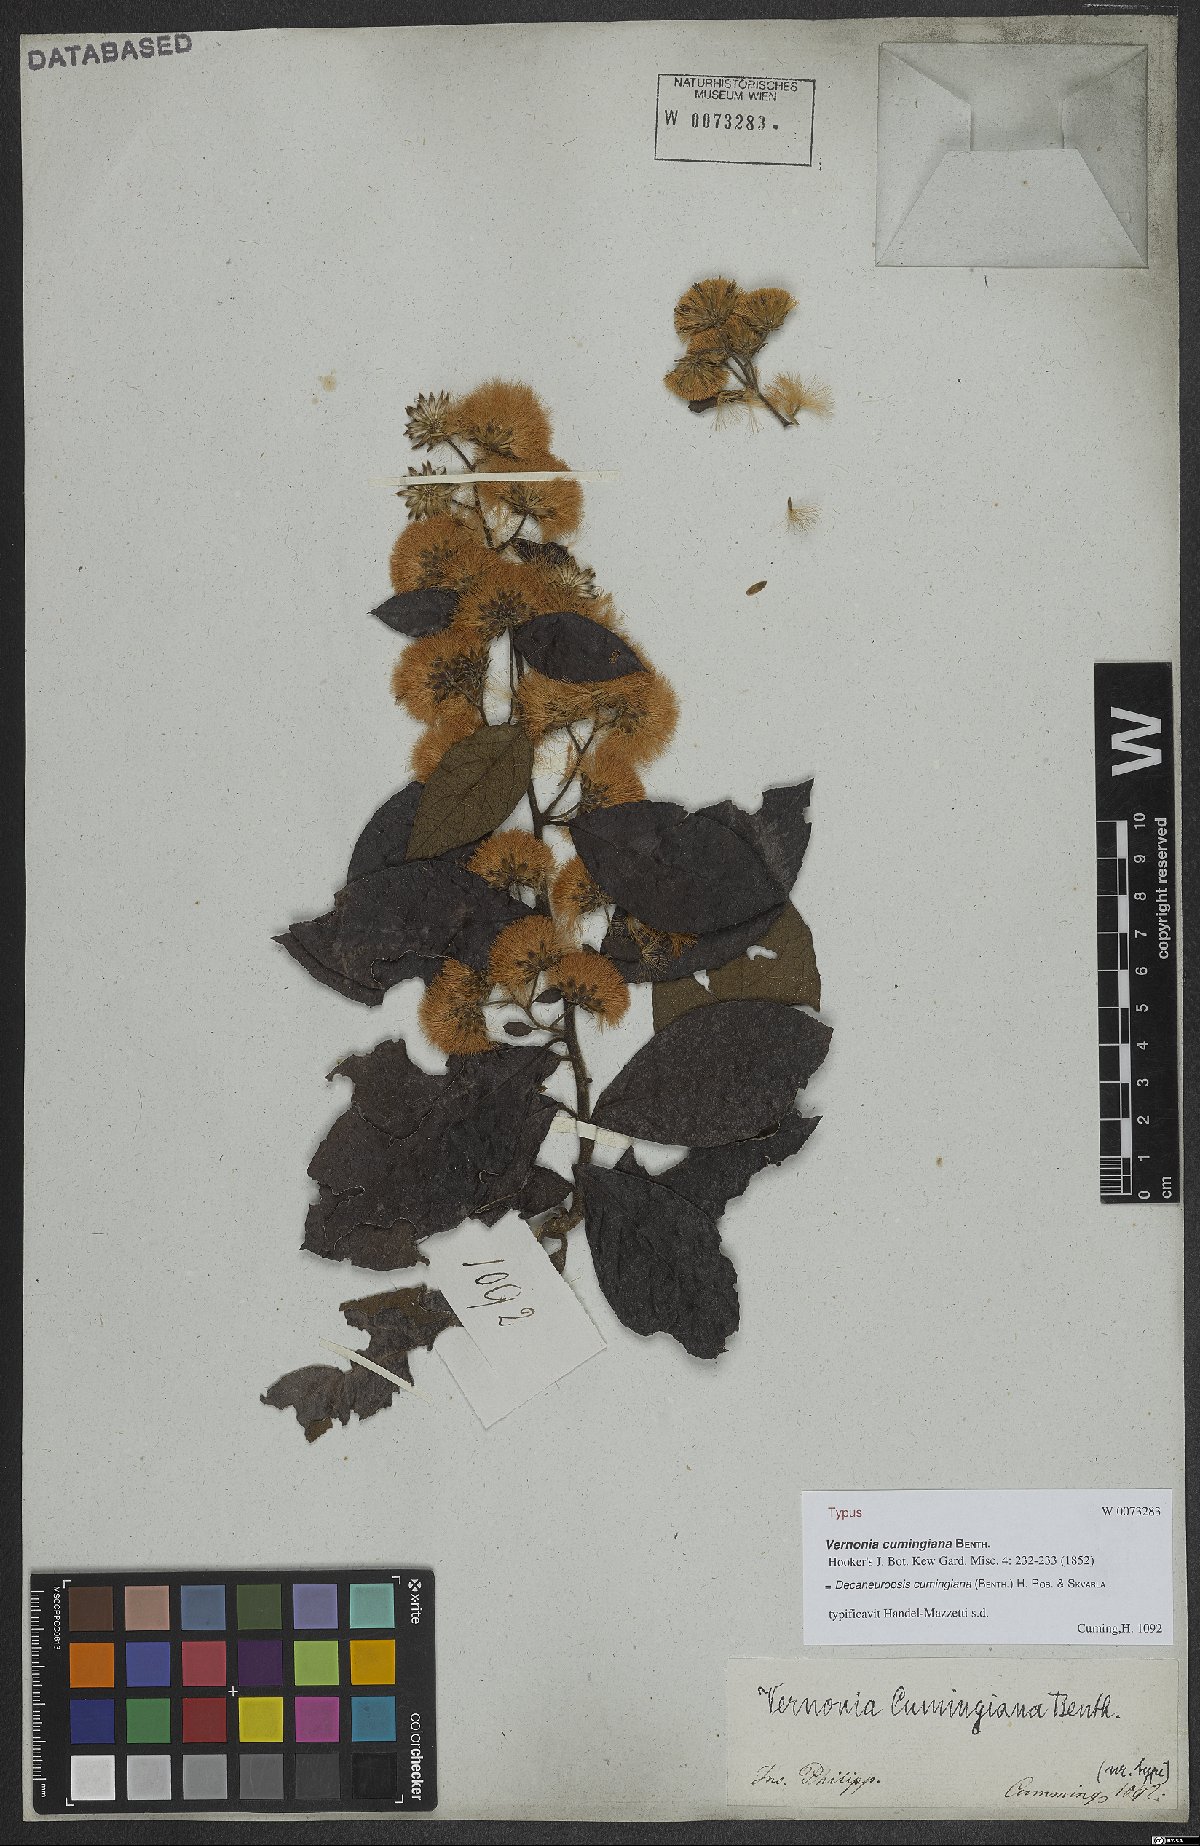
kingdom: Plantae
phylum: Tracheophyta
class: Magnoliopsida
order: Asterales
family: Asteraceae
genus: Decaneuropsis
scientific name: Decaneuropsis cumingiana
